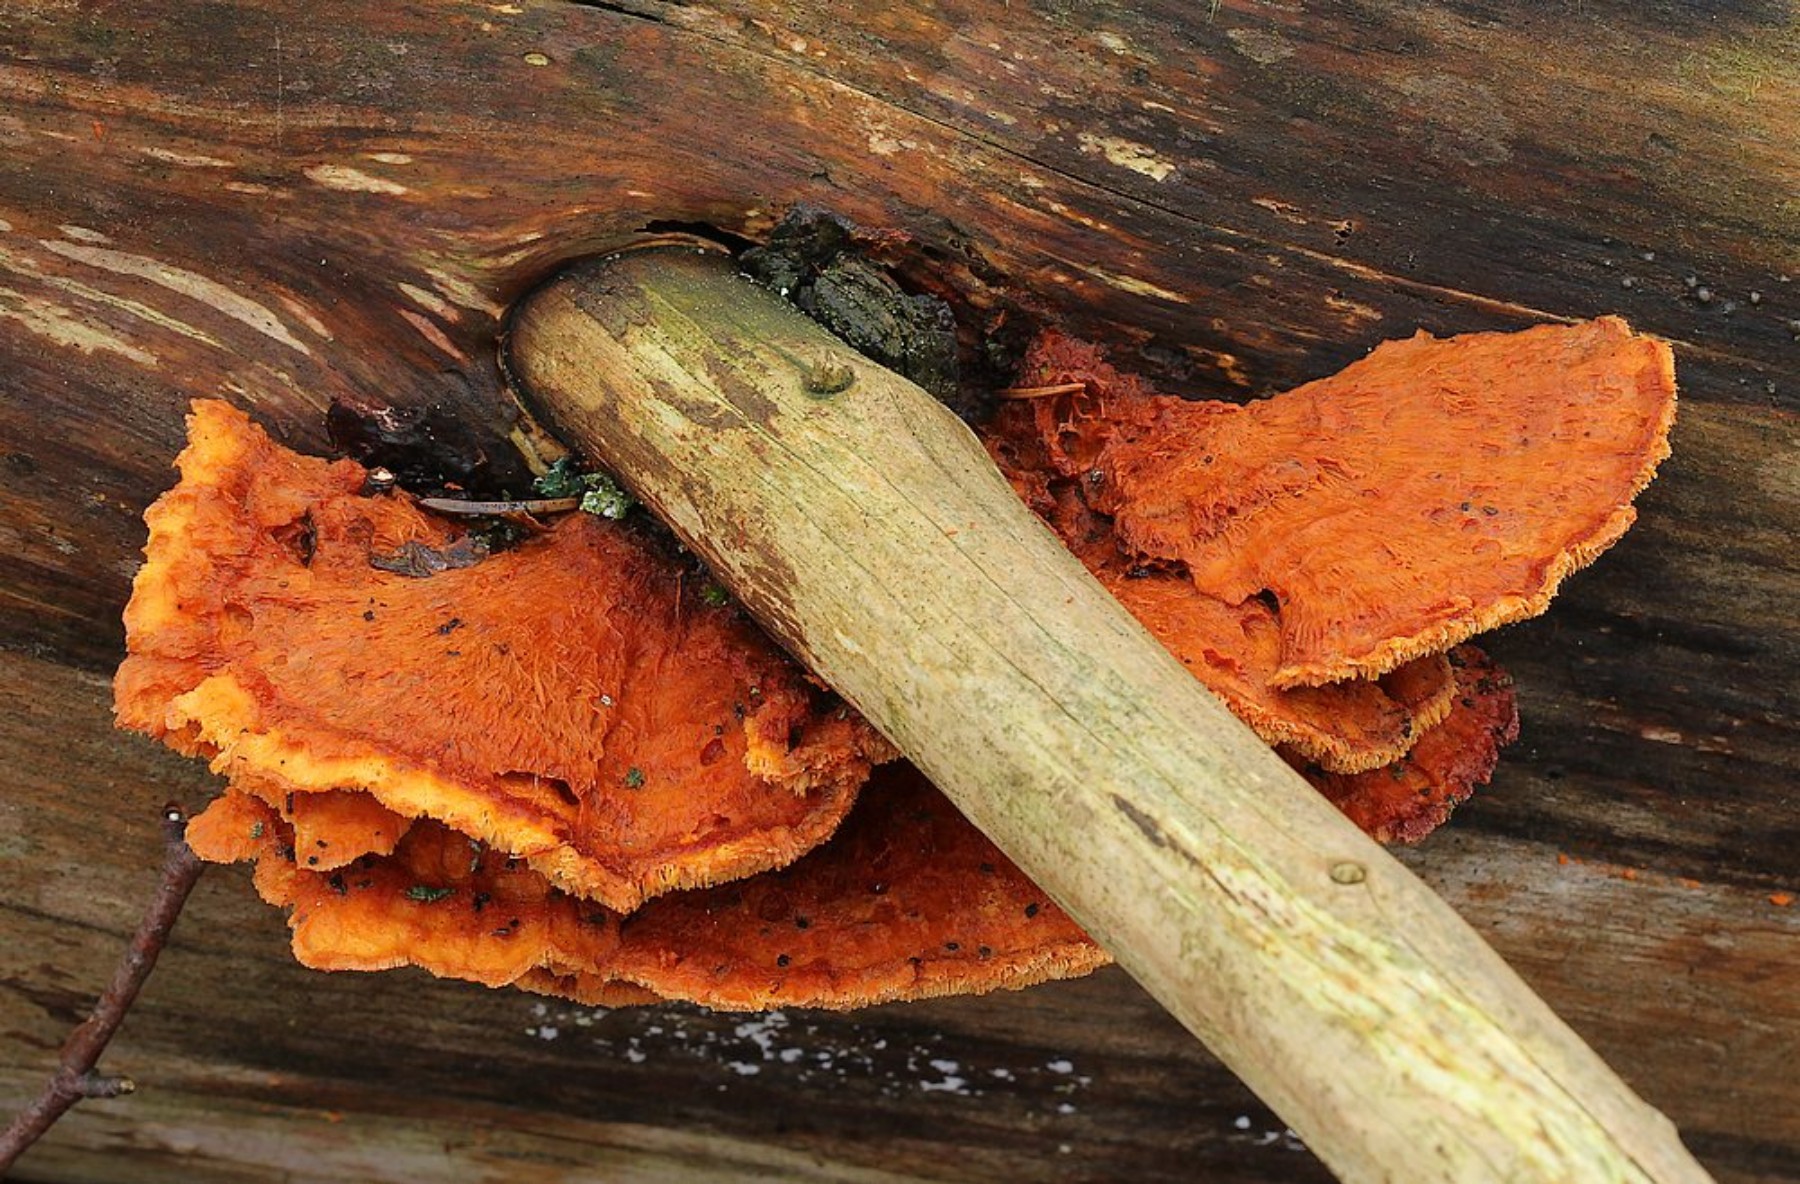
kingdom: Fungi
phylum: Basidiomycota
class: Agaricomycetes
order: Polyporales
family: Pycnoporellaceae
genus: Pycnoporellus
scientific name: Pycnoporellus fulgens
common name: flammeporesvamp
